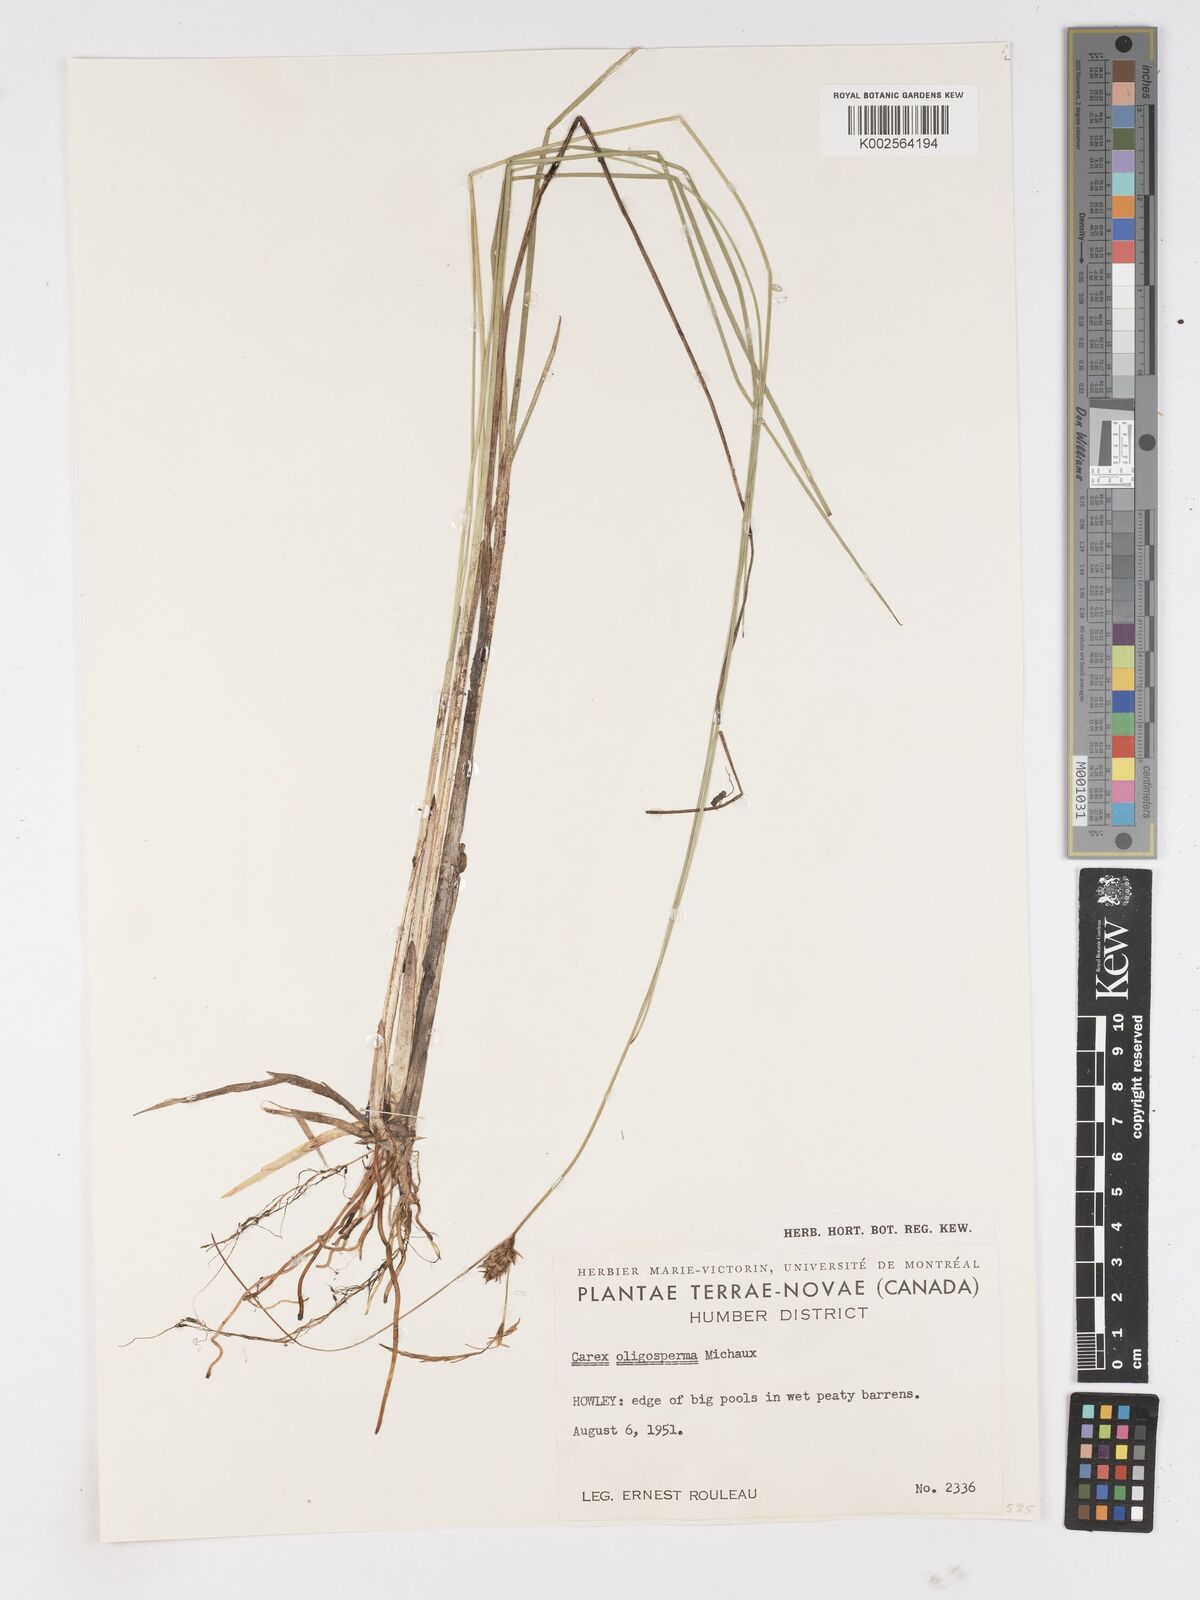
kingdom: Plantae
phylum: Tracheophyta
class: Liliopsida
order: Poales
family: Cyperaceae
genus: Carex
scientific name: Carex oligosperma
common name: Few-seed sedge
